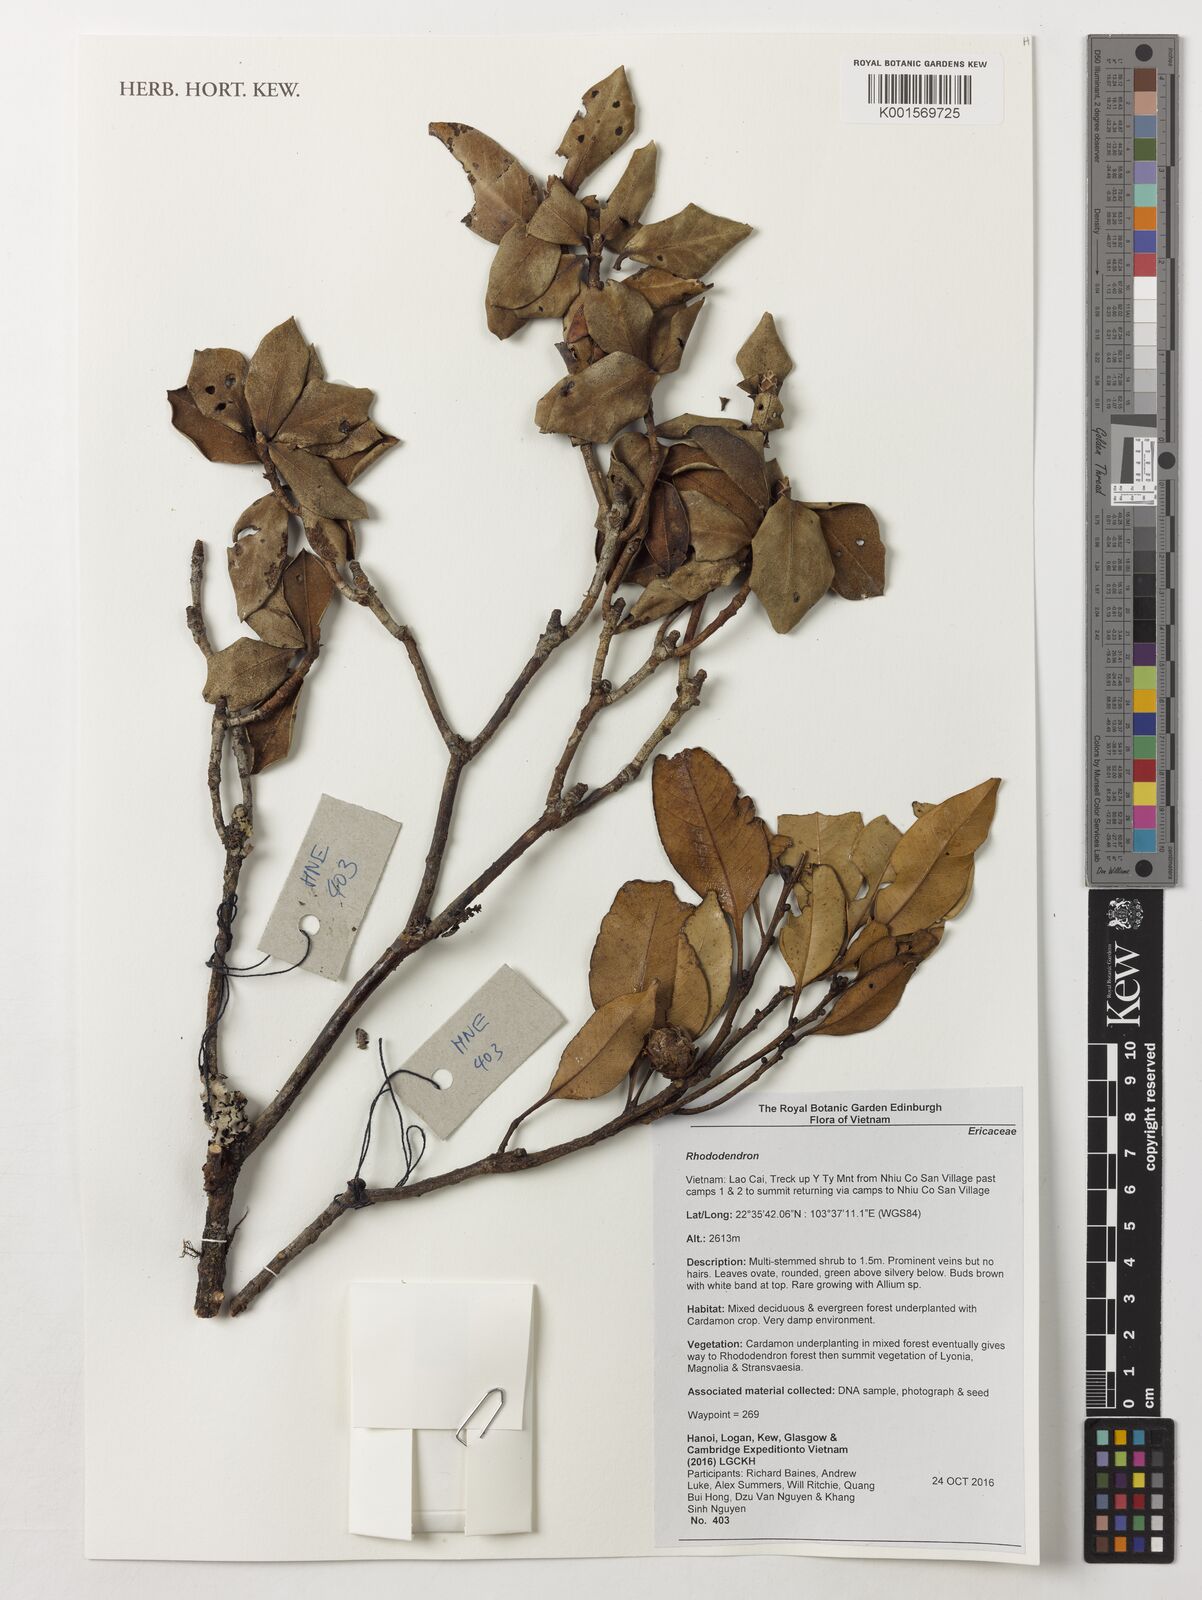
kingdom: Plantae
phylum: Tracheophyta
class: Magnoliopsida
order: Ericales
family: Ericaceae
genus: Rhododendron
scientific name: Rhododendron
